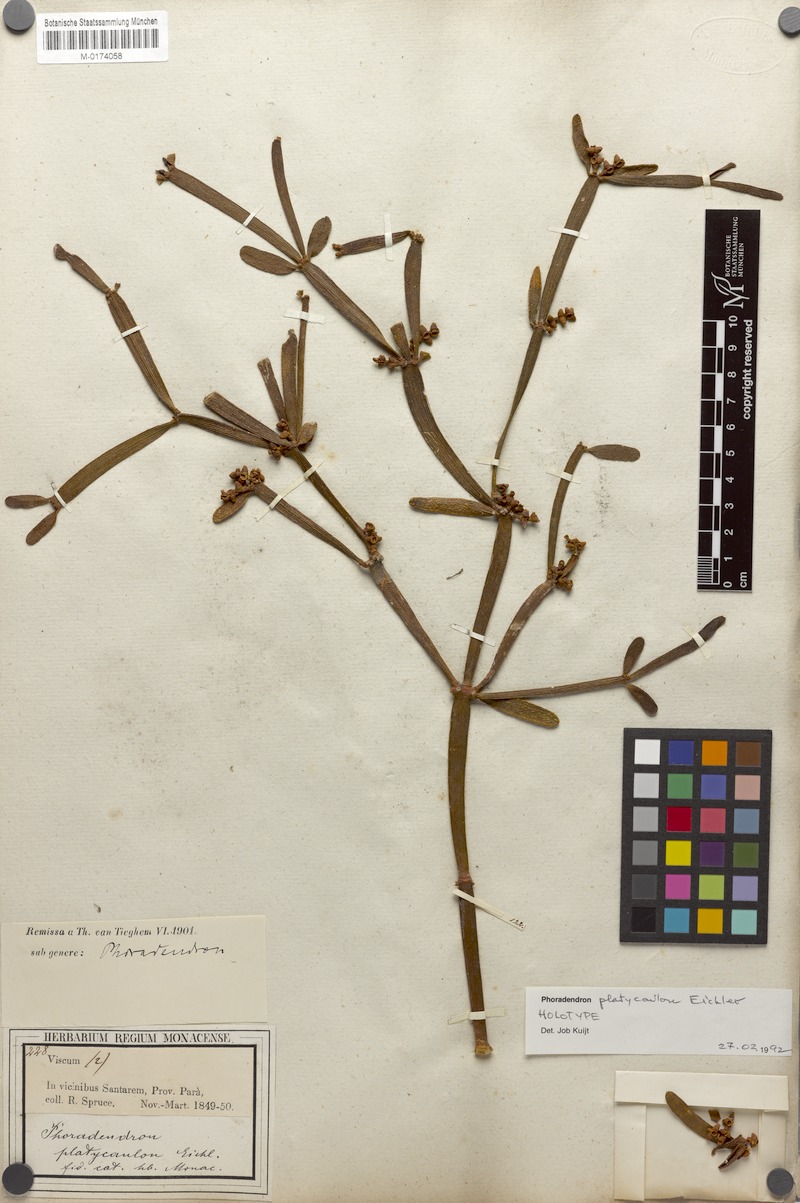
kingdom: Plantae
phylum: Tracheophyta
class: Magnoliopsida
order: Santalales
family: Viscaceae
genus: Phoradendron
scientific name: Phoradendron planiphyllum
